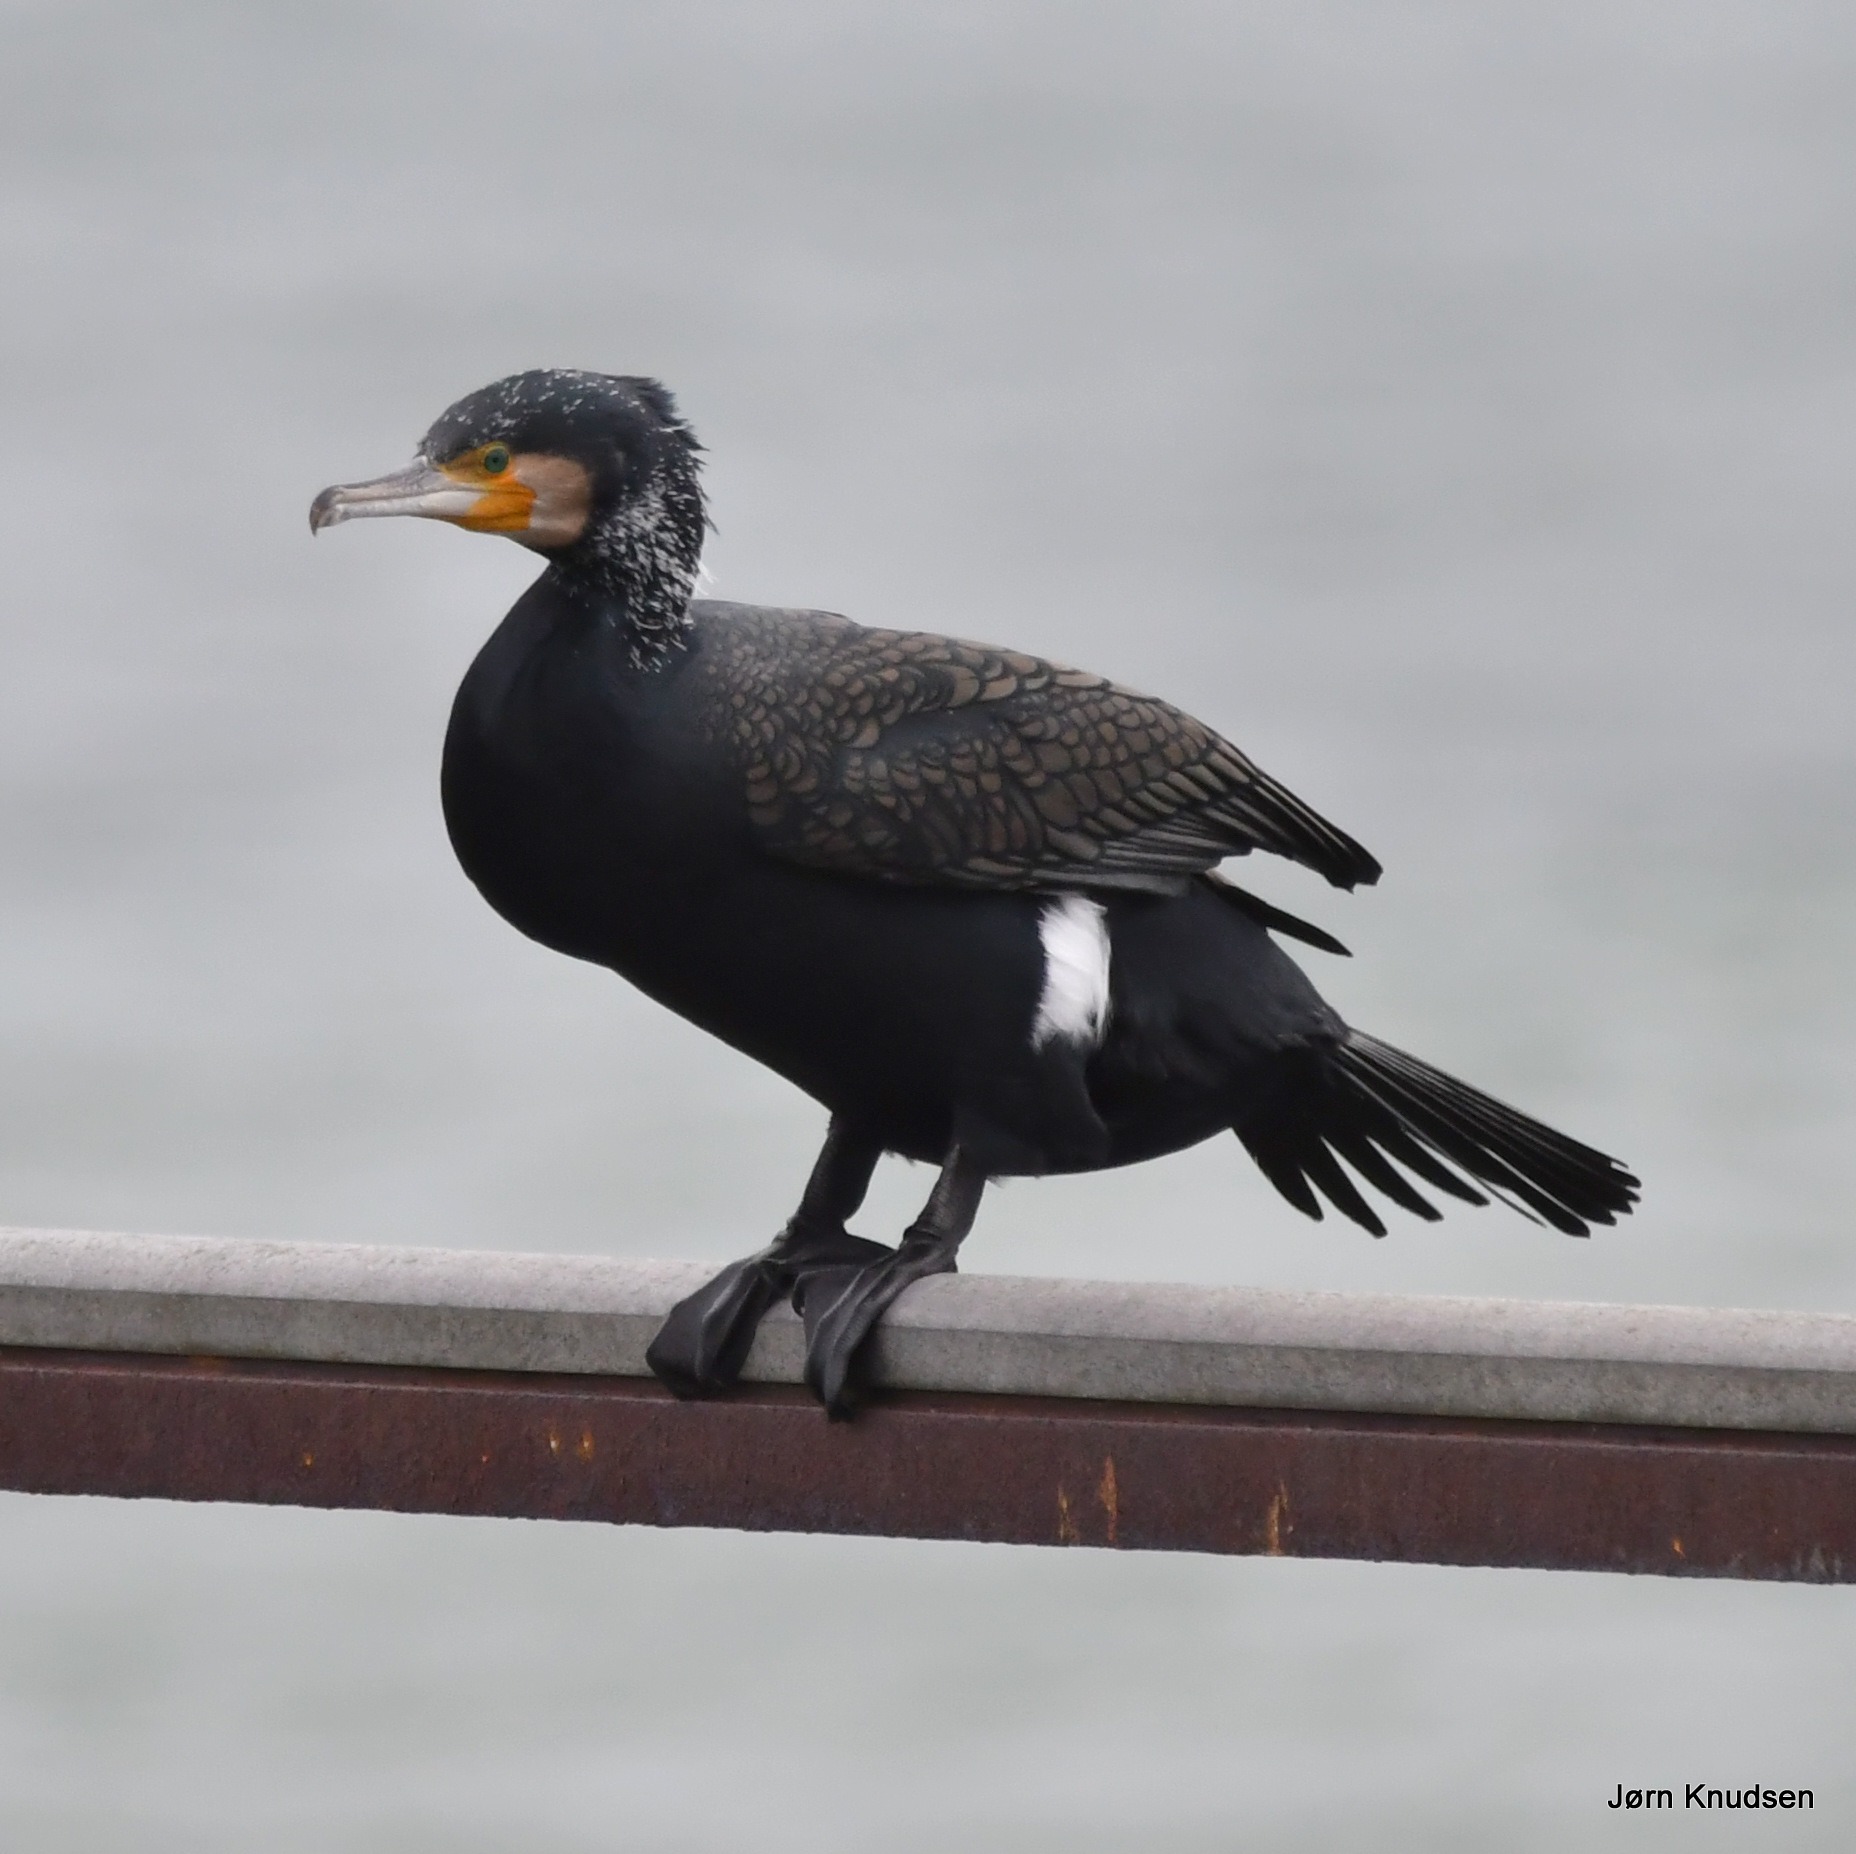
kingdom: Animalia
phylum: Chordata
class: Aves
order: Suliformes
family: Phalacrocoracidae
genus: Phalacrocorax
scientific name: Phalacrocorax carbo
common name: Mellemskarv
